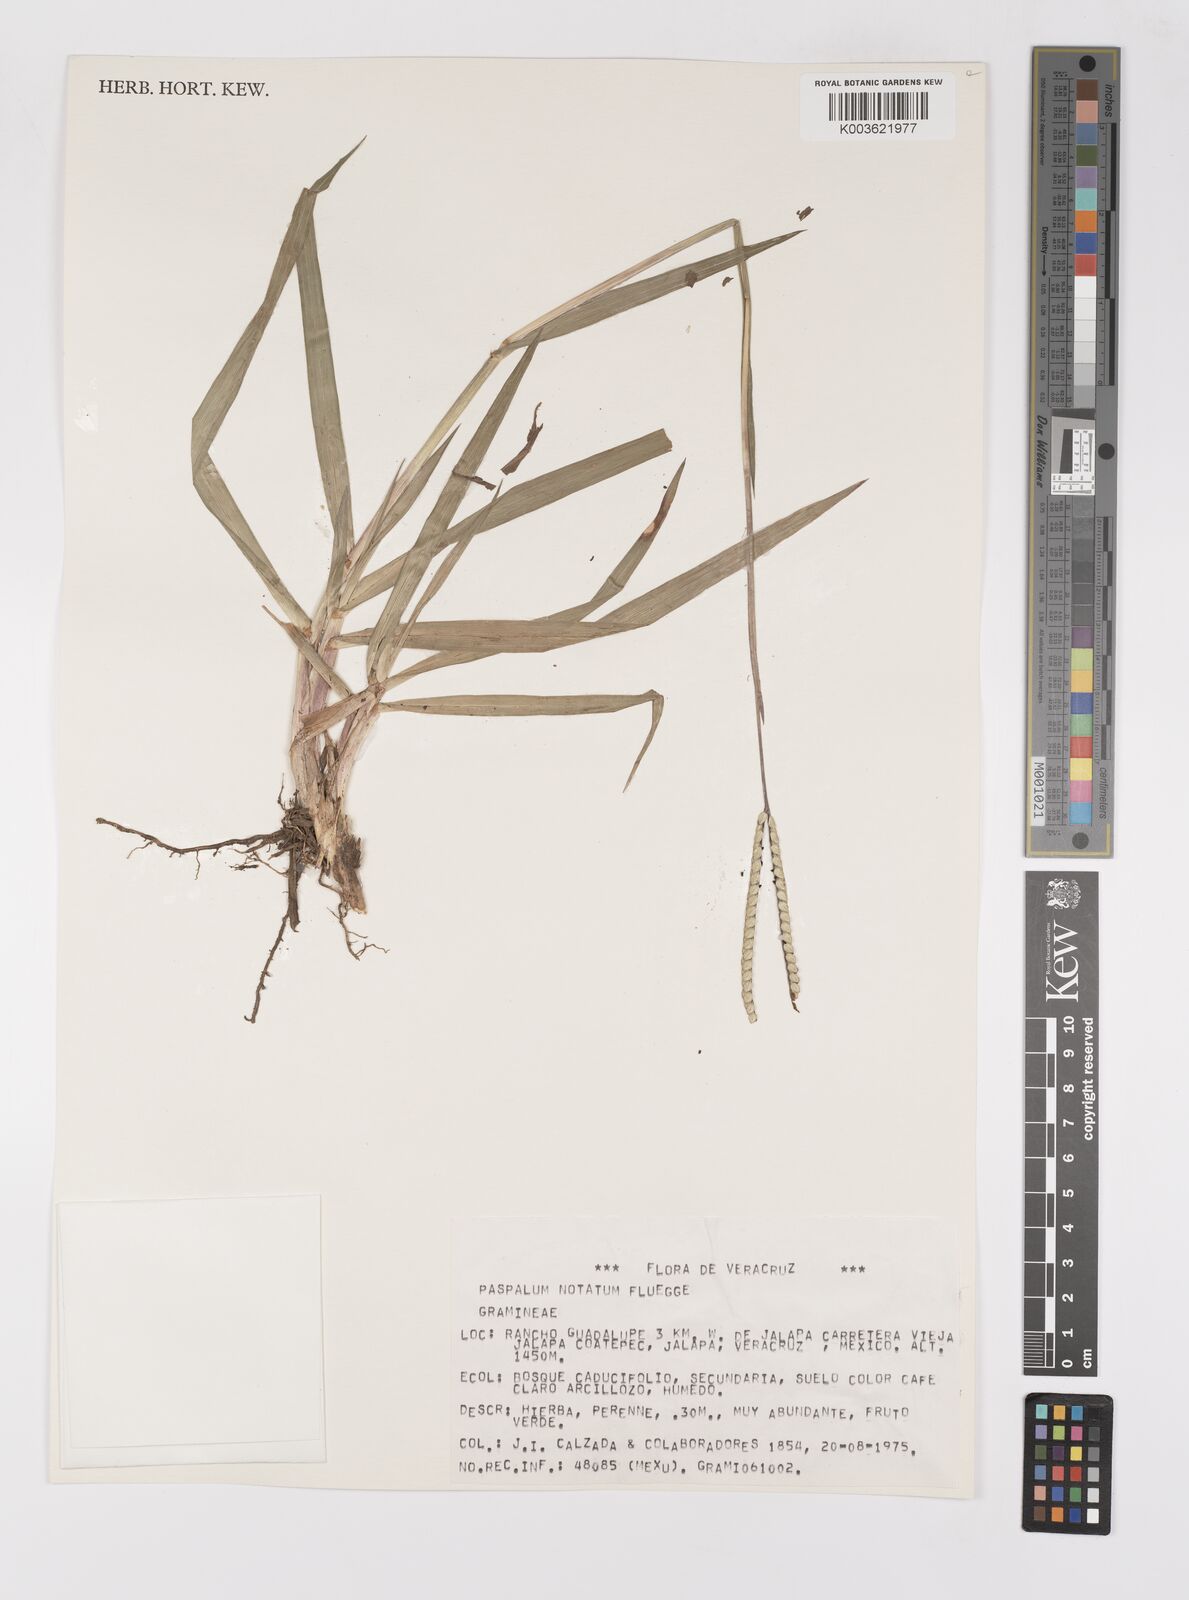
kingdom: Plantae
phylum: Tracheophyta
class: Liliopsida
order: Poales
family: Poaceae
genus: Paspalum
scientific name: Paspalum notatum
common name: Bahiagrass
